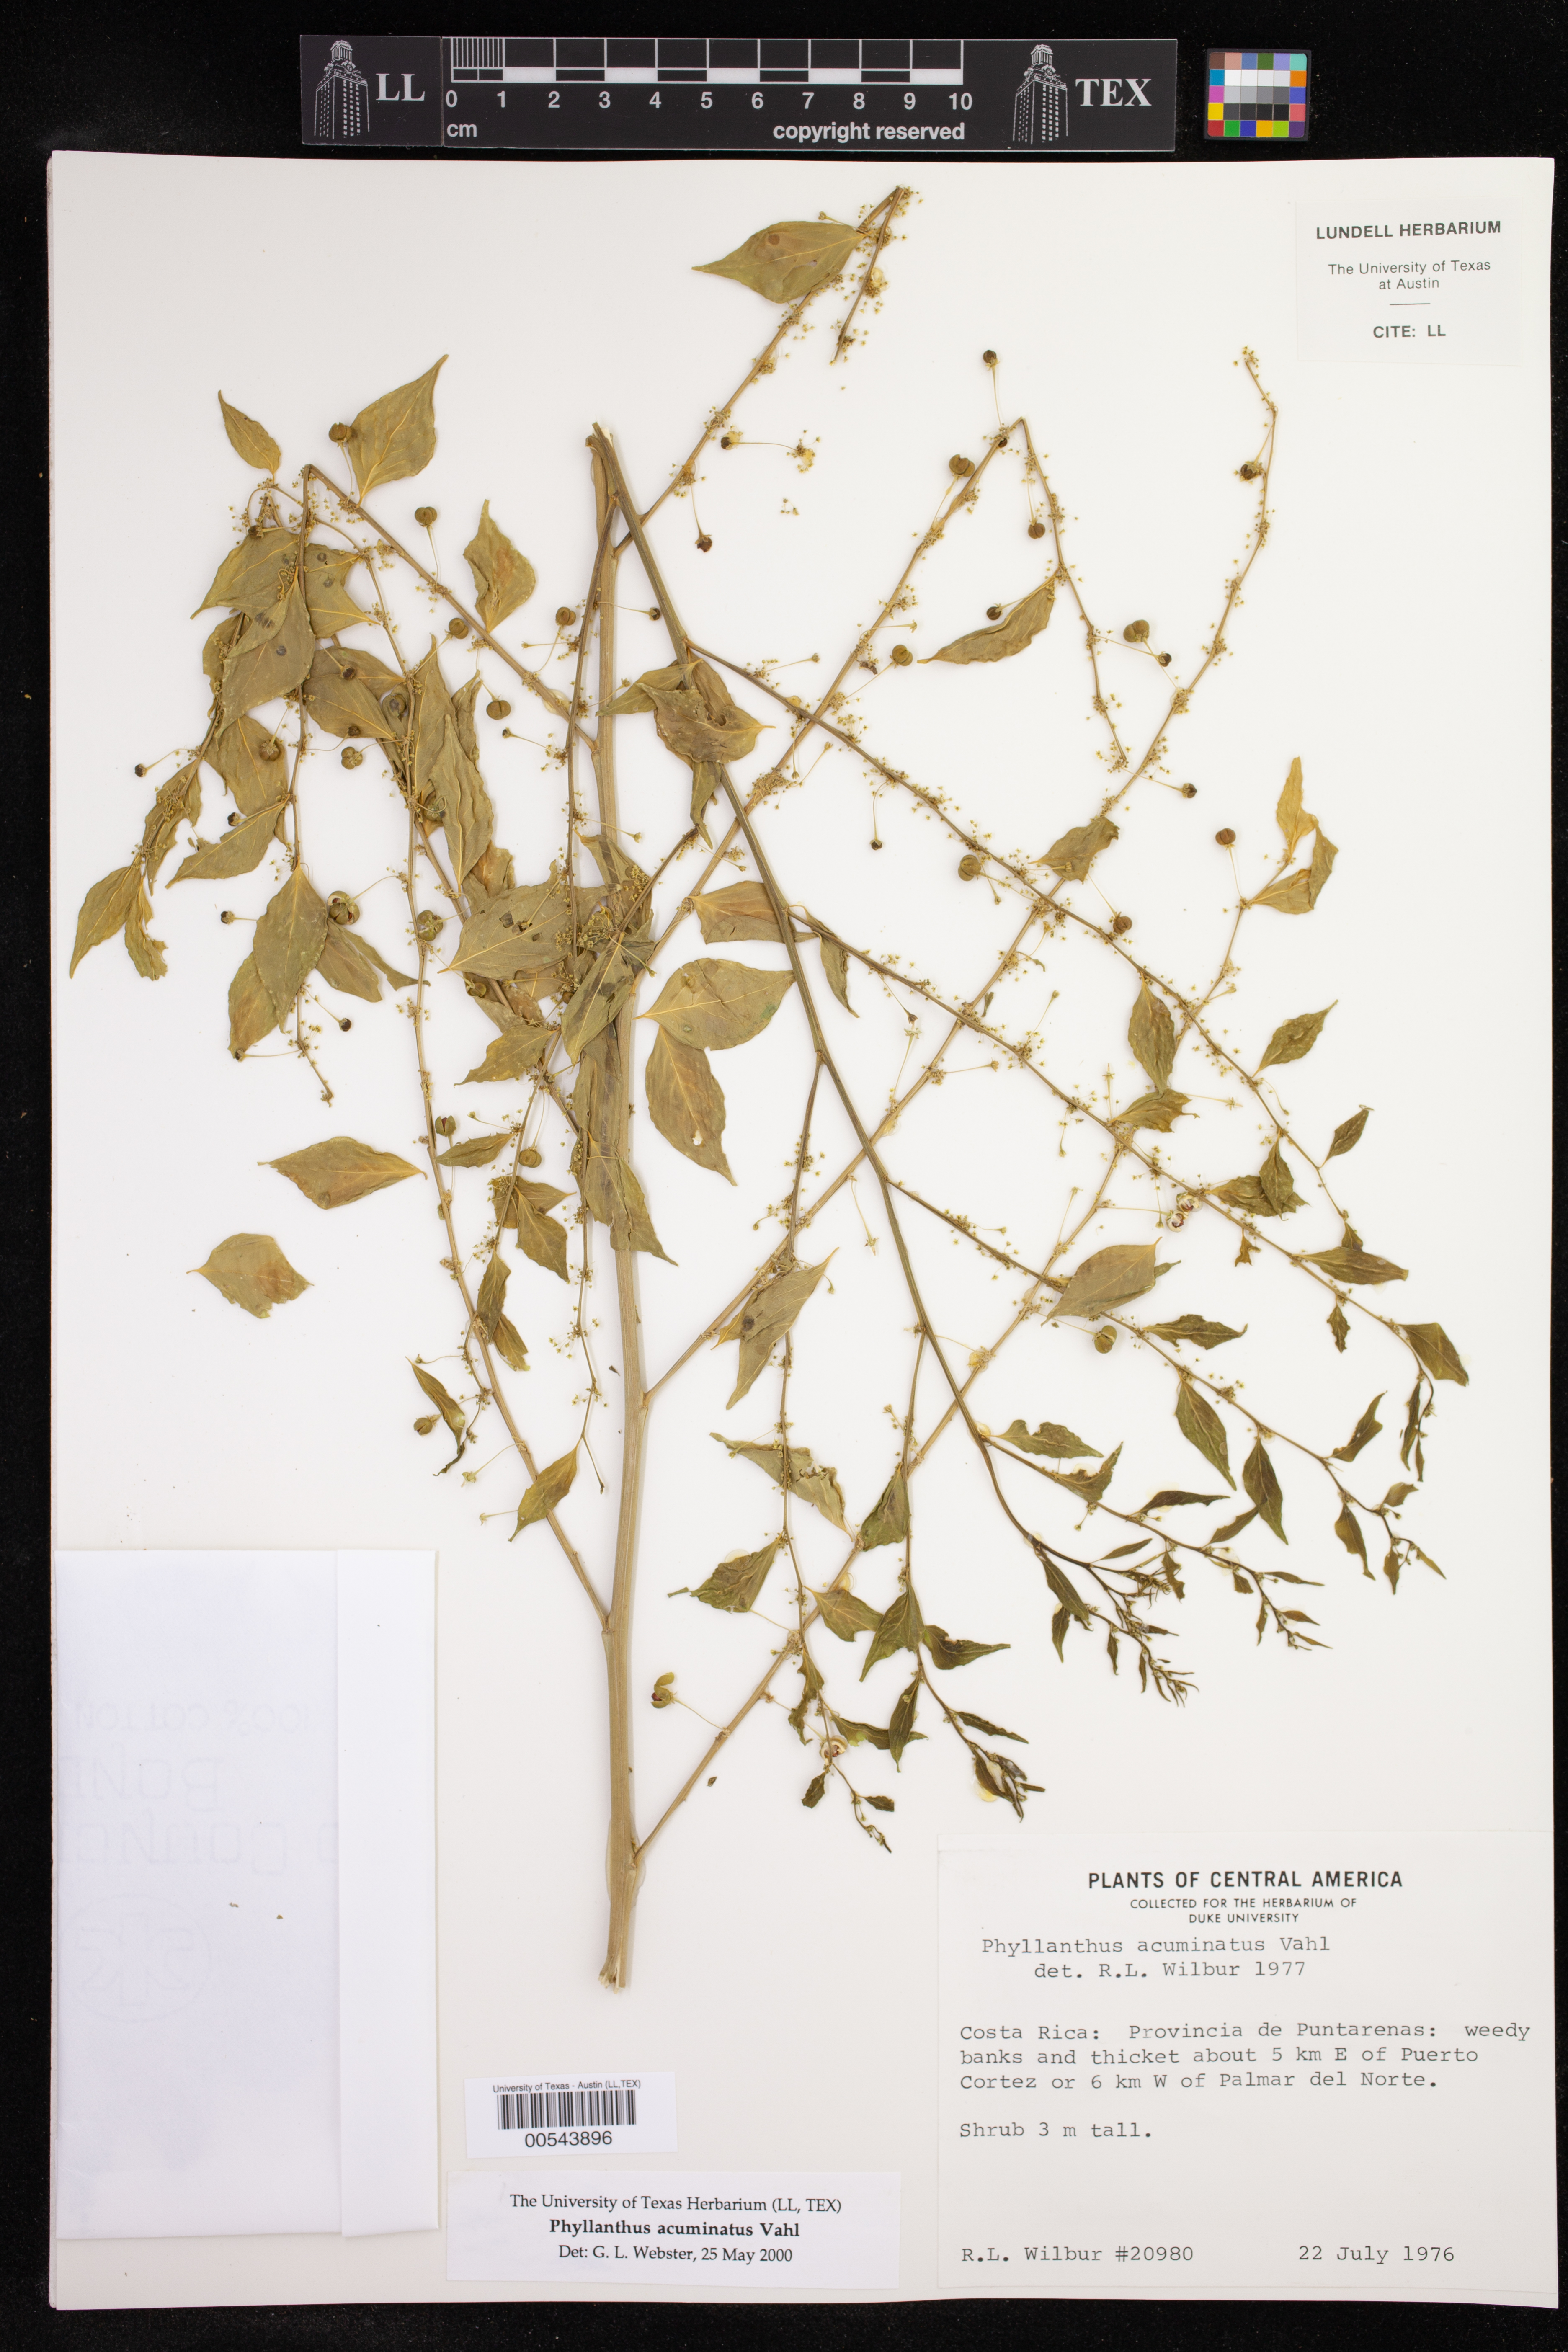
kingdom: Plantae
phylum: Tracheophyta
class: Magnoliopsida
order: Malpighiales
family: Phyllanthaceae
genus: Phyllanthus
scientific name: Phyllanthus acuminatus
